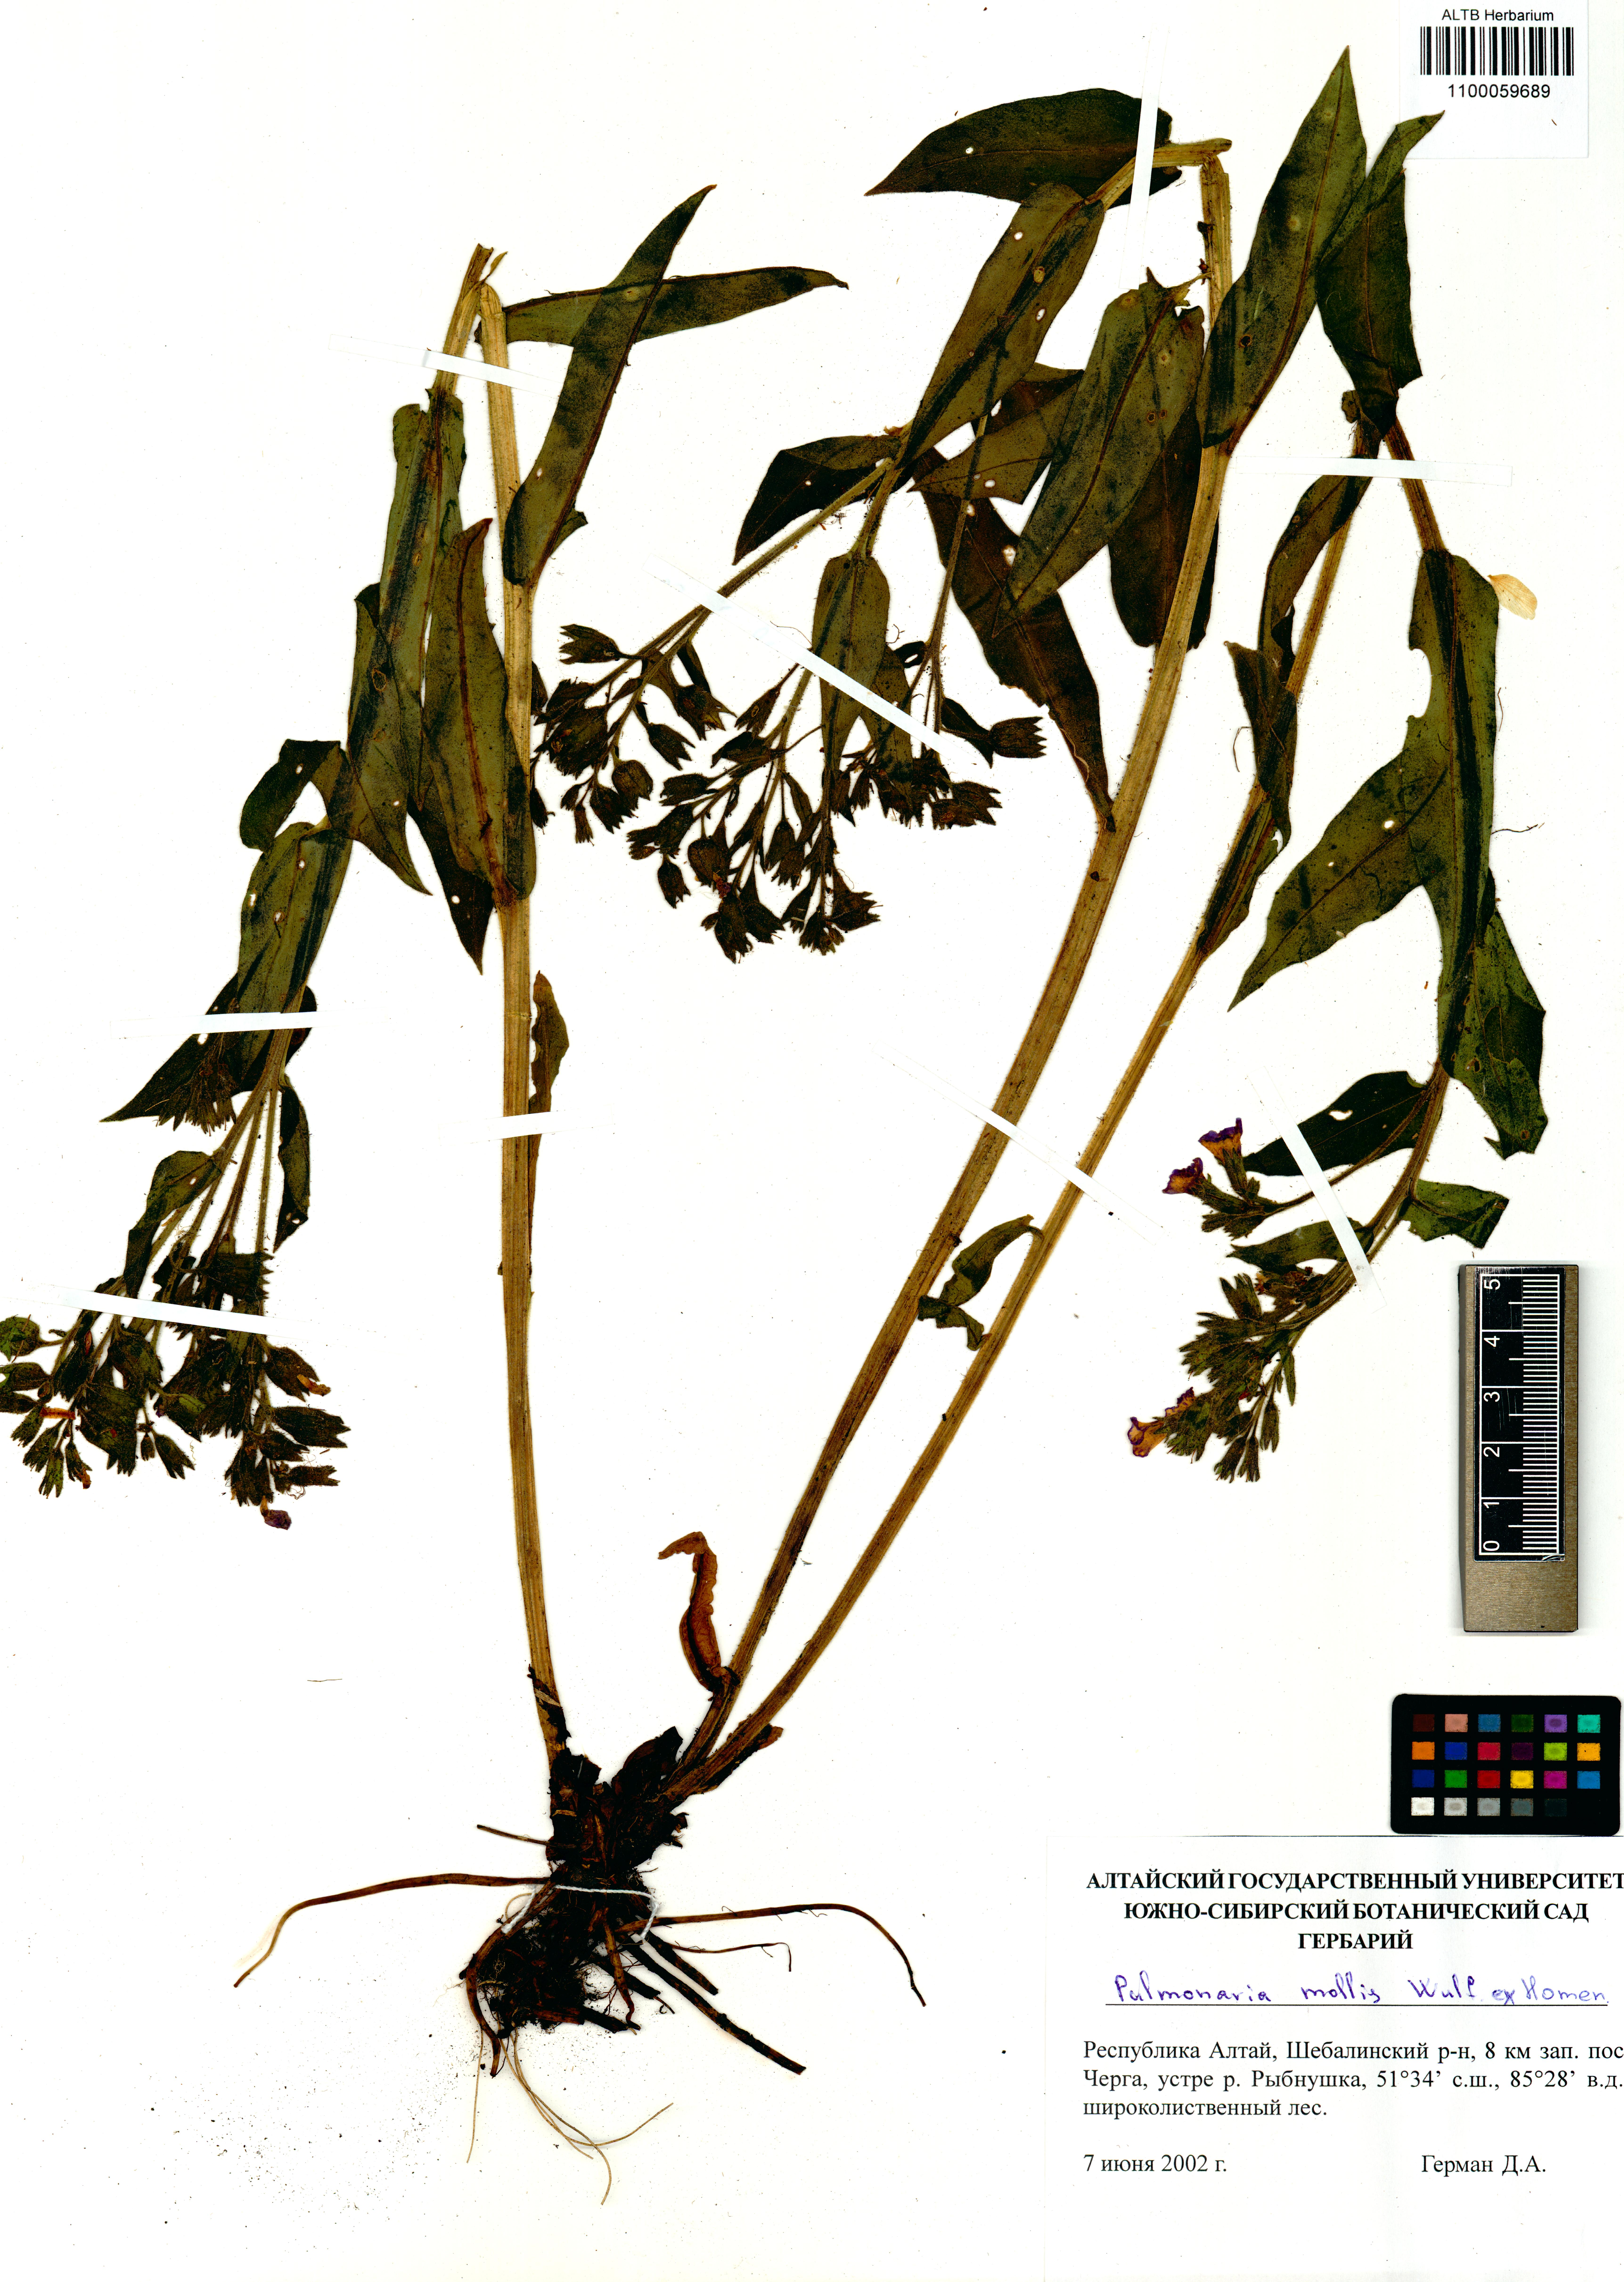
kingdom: Plantae
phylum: Tracheophyta
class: Magnoliopsida
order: Boraginales
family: Boraginaceae
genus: Pulmonaria
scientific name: Pulmonaria mollis
